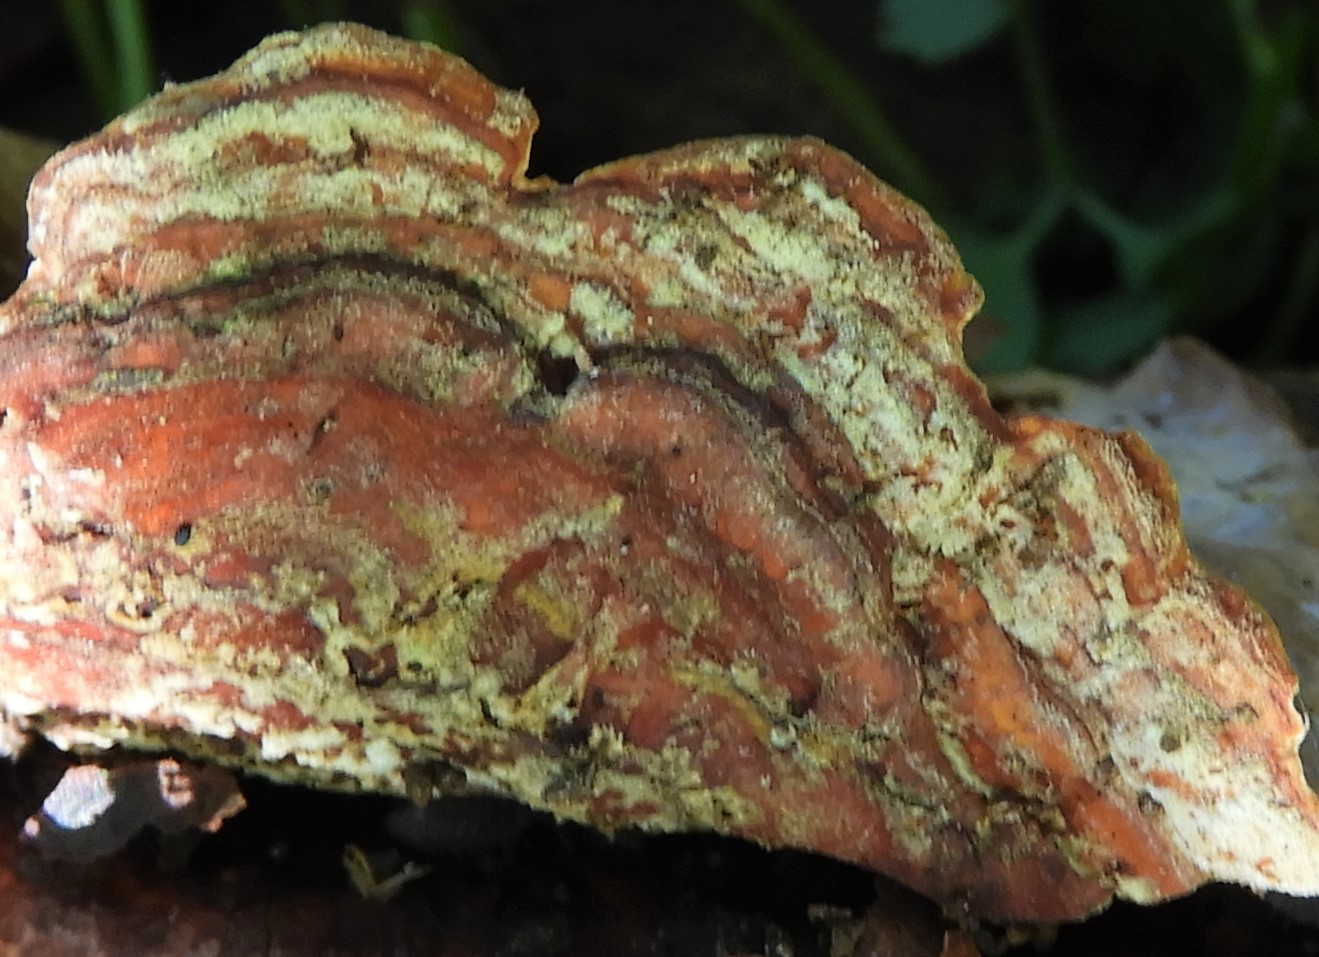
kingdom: Fungi
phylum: Basidiomycota
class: Agaricomycetes
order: Russulales
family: Stereaceae
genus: Stereum
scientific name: Stereum subtomentosum
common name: smuk lædersvamp
